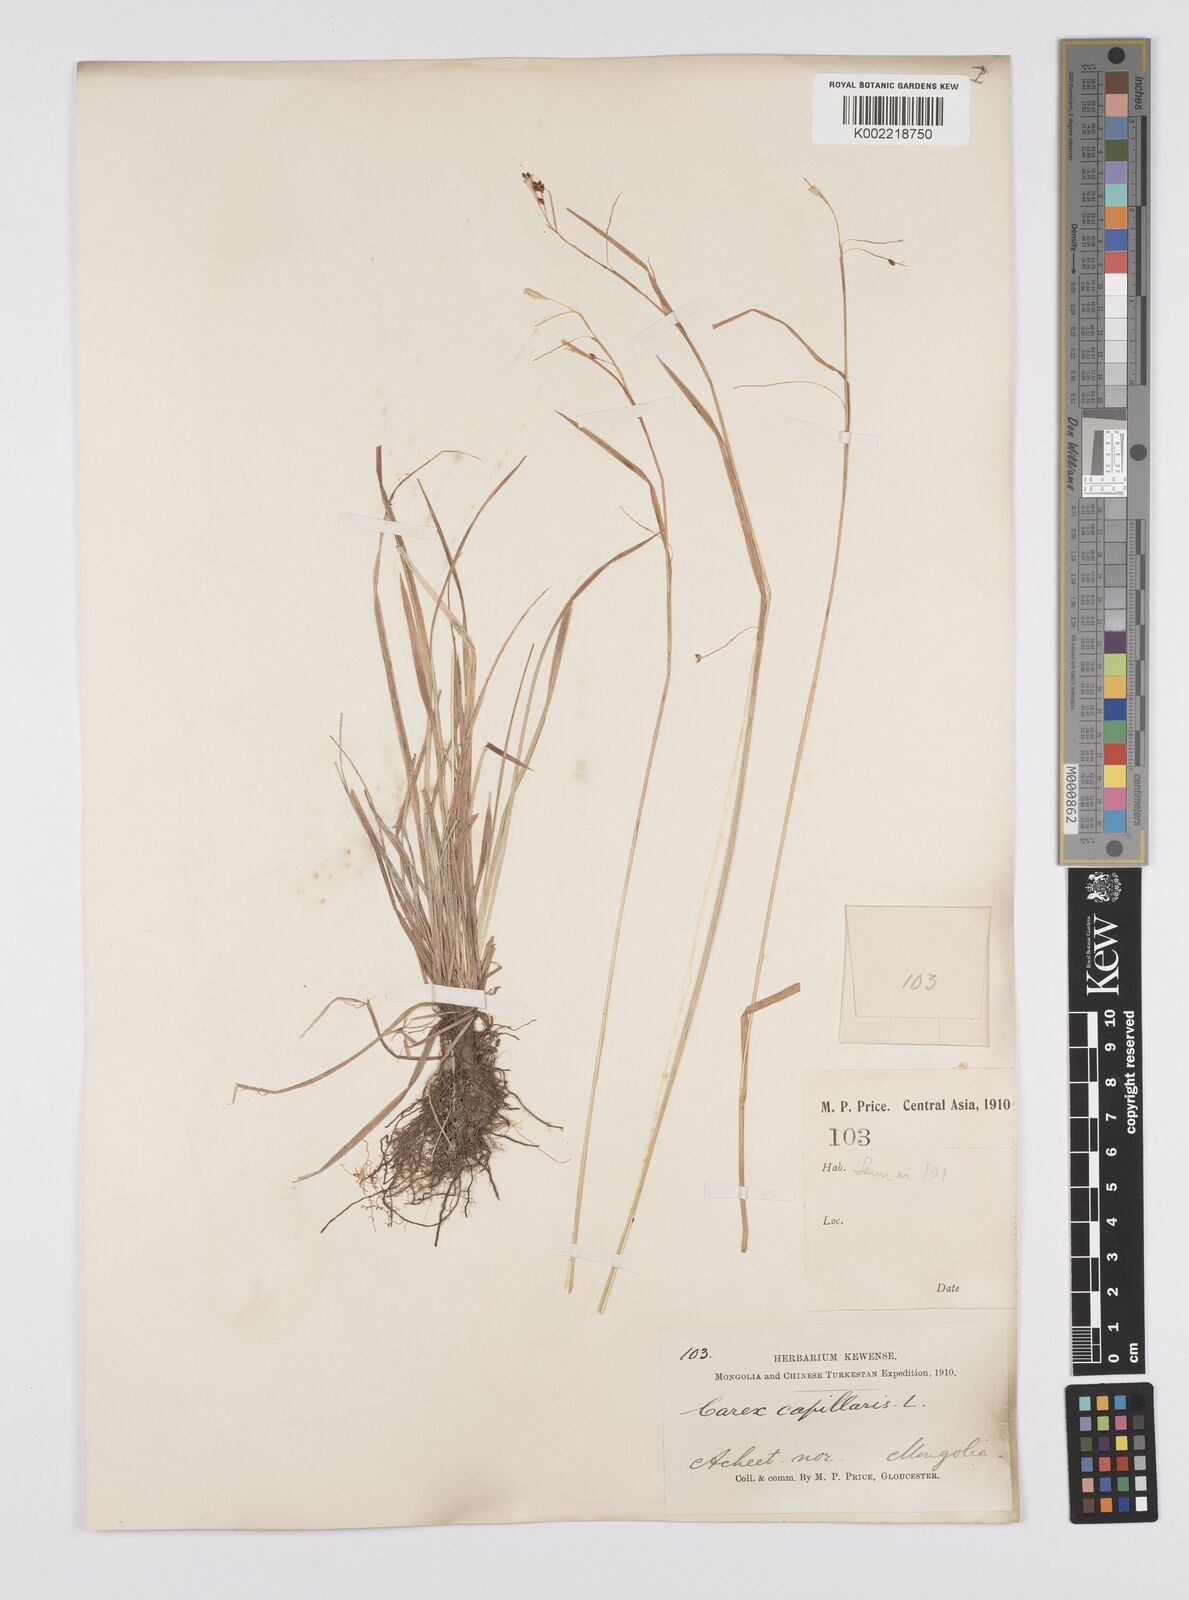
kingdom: Plantae
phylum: Tracheophyta
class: Liliopsida
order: Poales
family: Cyperaceae
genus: Carex
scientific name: Carex capillaris
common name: Hair sedge
